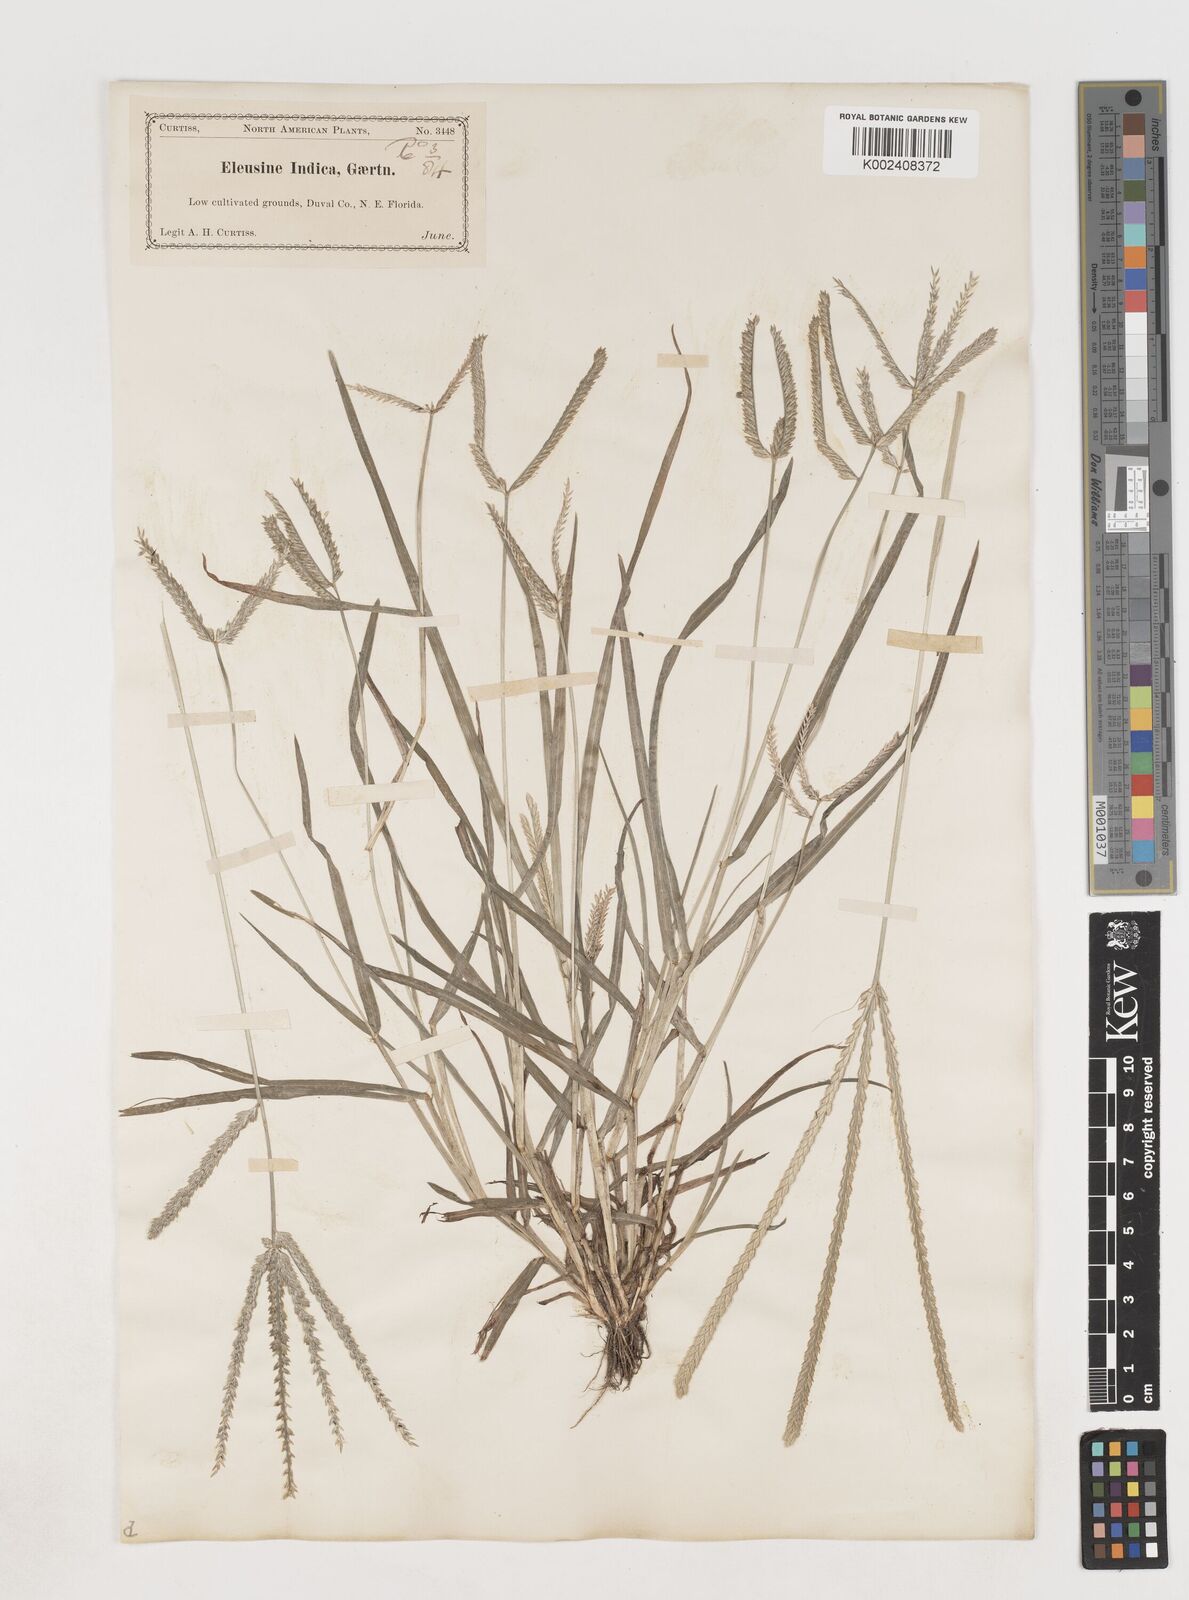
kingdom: Plantae
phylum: Tracheophyta
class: Liliopsida
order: Poales
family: Poaceae
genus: Eleusine
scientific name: Eleusine indica
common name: Yard-grass
